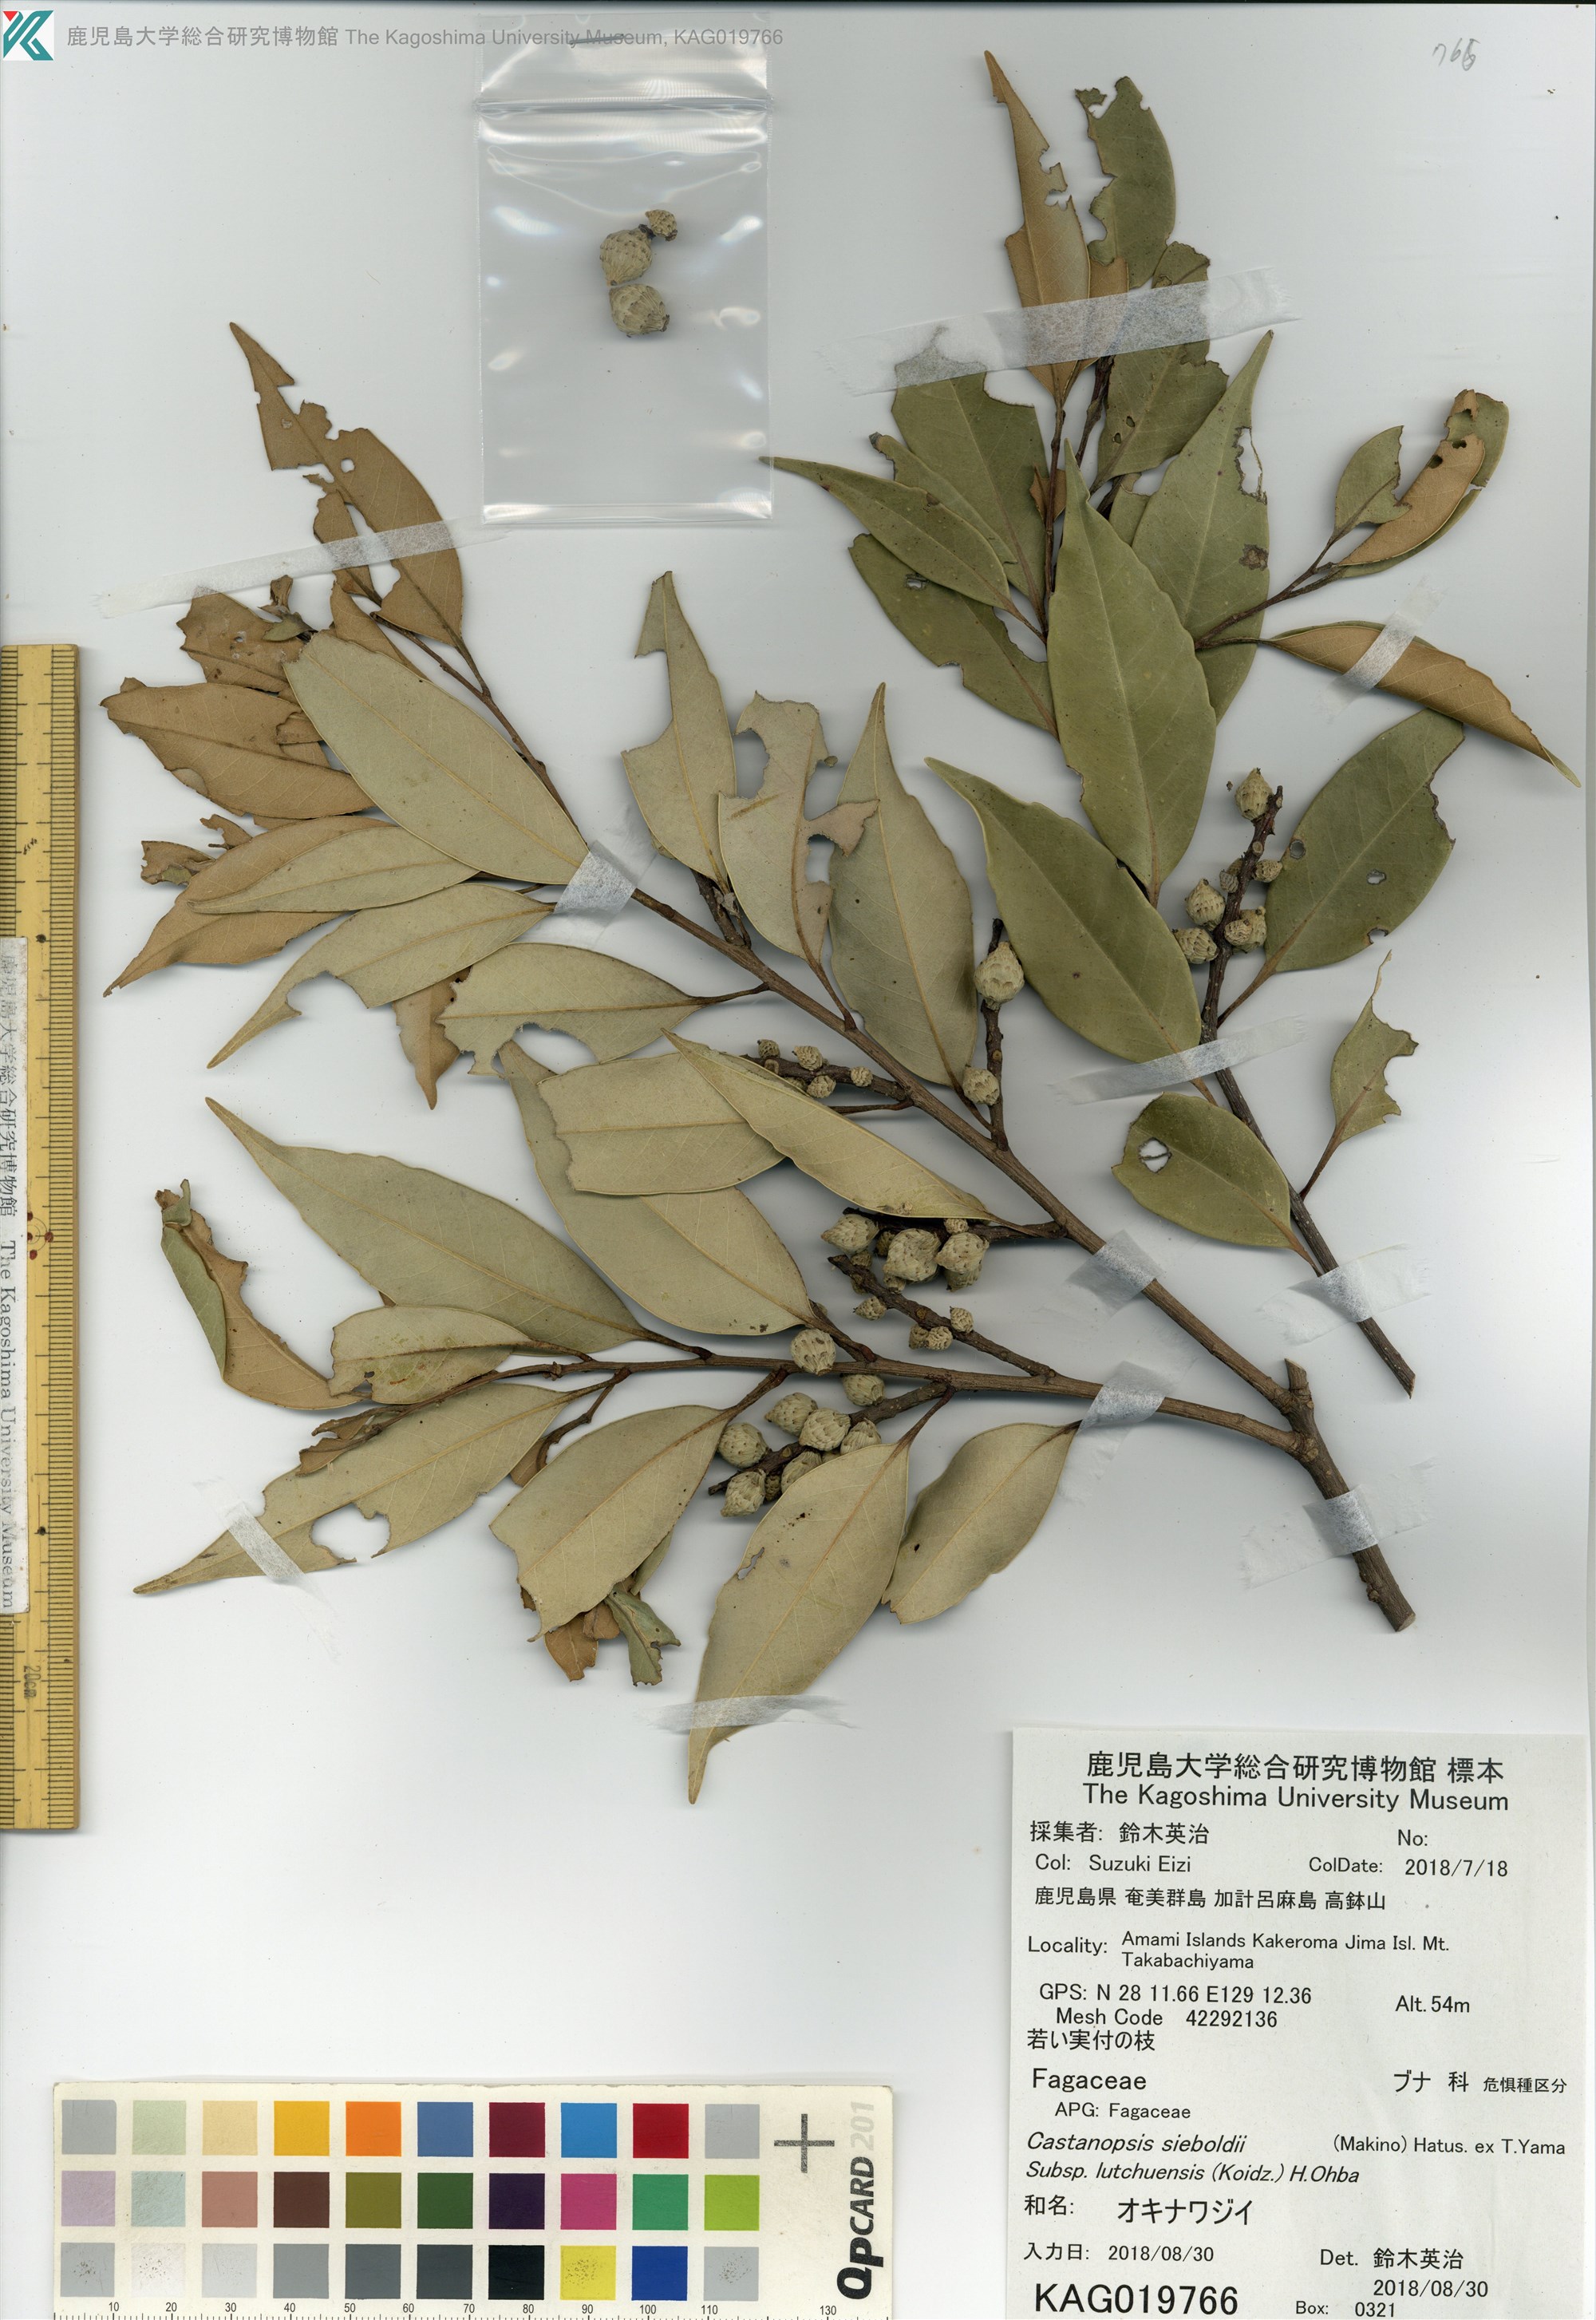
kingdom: Plantae
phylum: Tracheophyta
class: Magnoliopsida
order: Fagales
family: Fagaceae
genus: Castanopsis
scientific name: Castanopsis sieboldii
